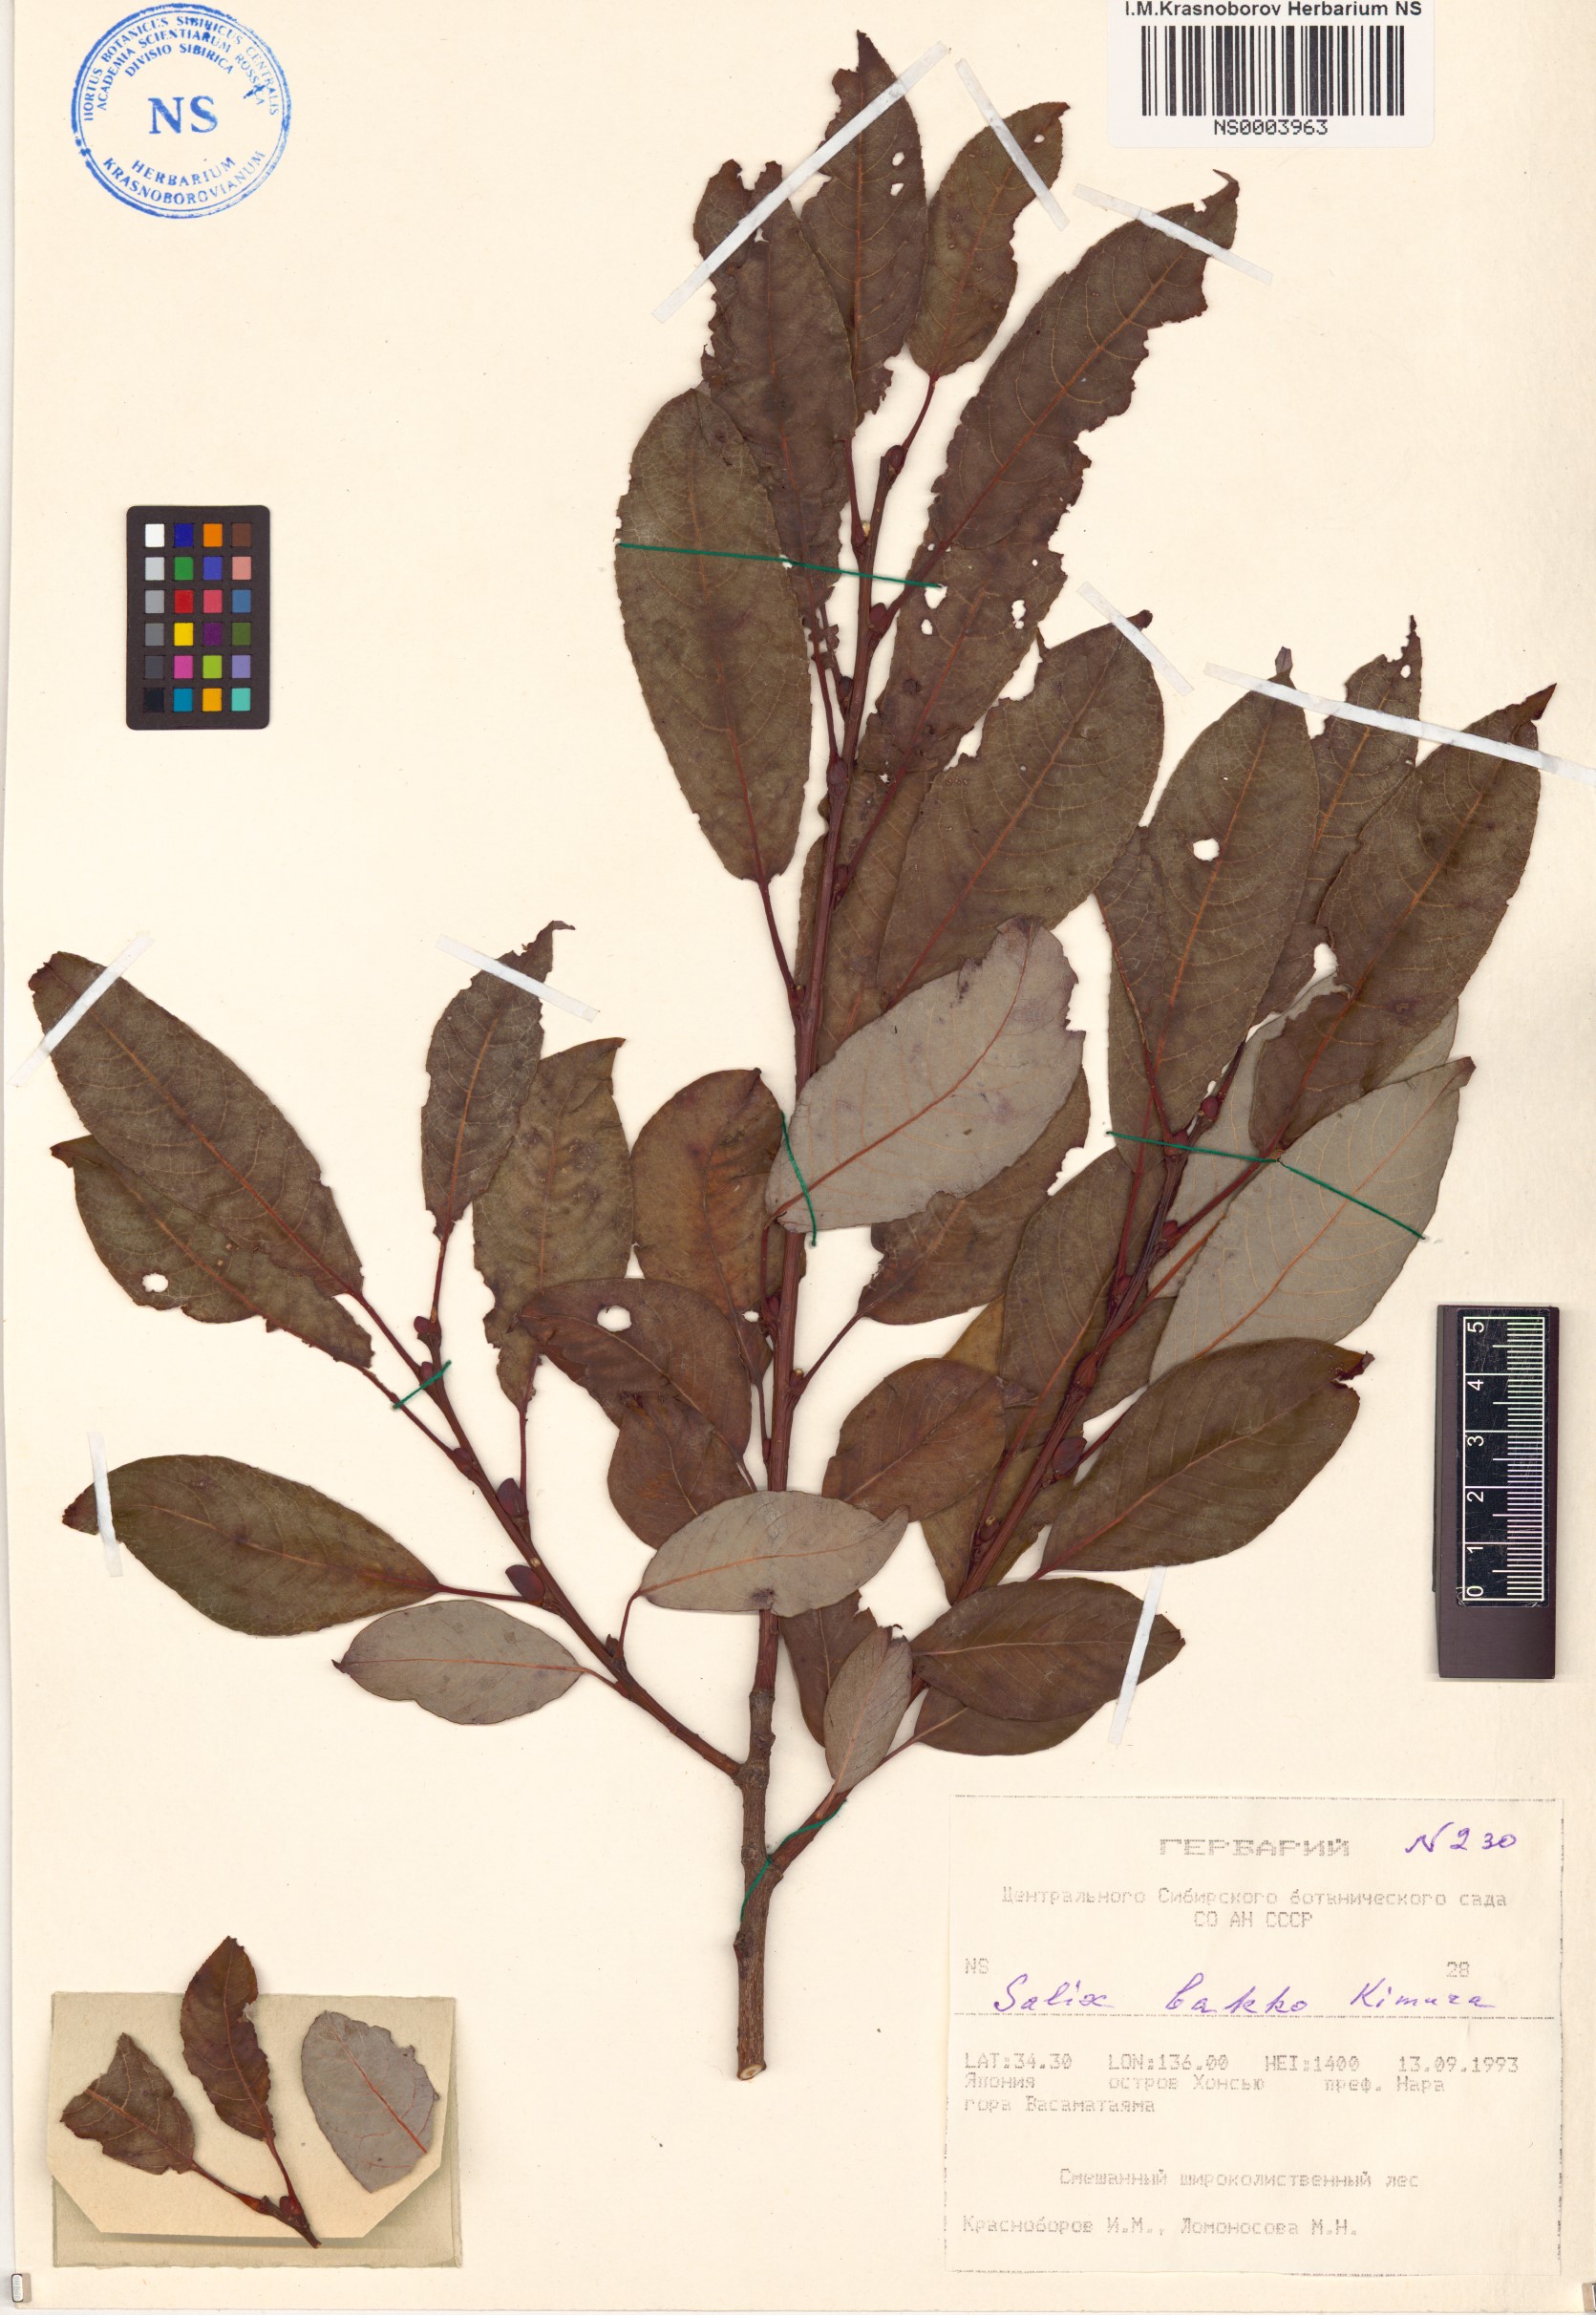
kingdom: Plantae
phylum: Tracheophyta
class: Magnoliopsida
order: Malpighiales
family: Salicaceae
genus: Salix
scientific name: Salix caprea
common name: Goat willow
